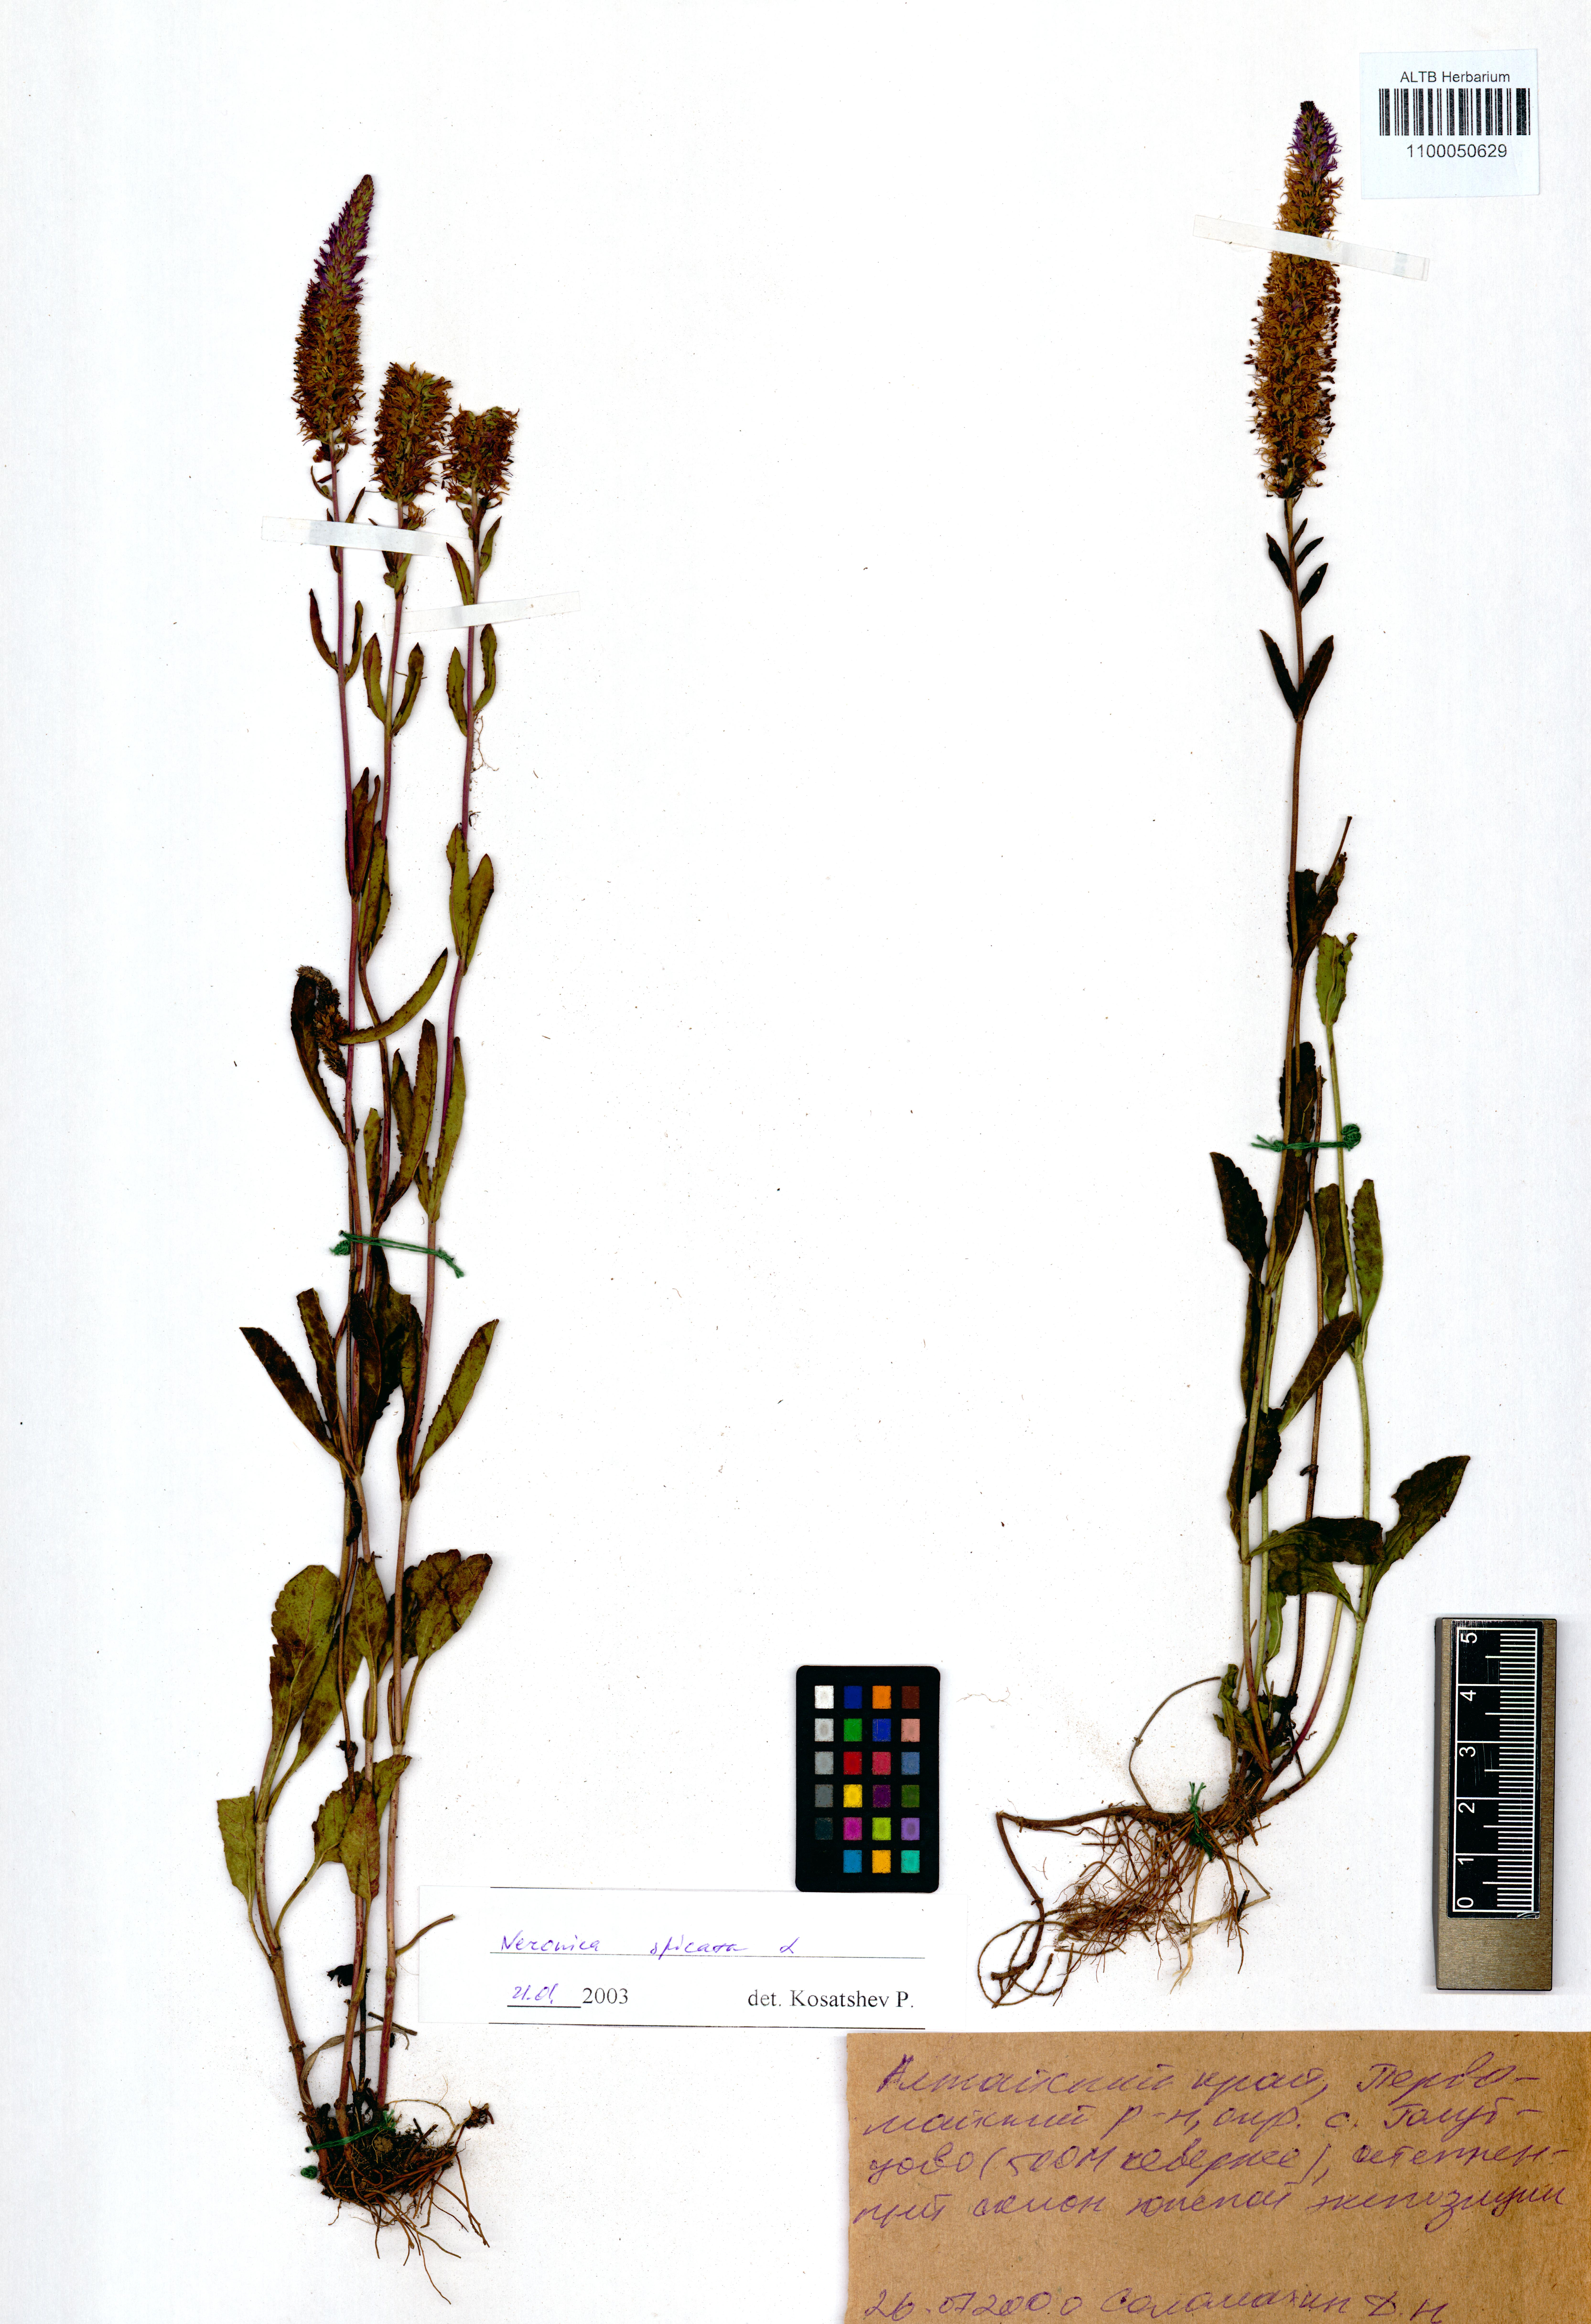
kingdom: Plantae
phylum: Tracheophyta
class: Magnoliopsida
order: Lamiales
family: Plantaginaceae
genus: Veronica
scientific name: Veronica spicata
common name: Spiked speedwell
